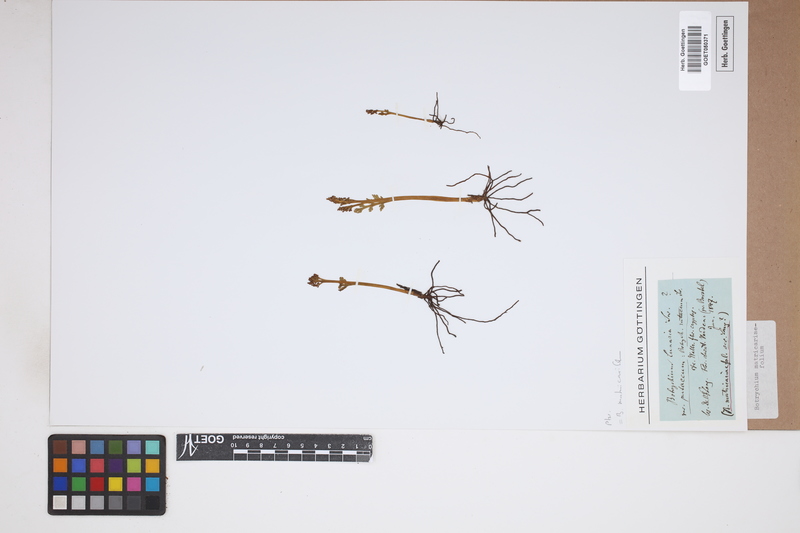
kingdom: Plantae
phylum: Tracheophyta
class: Polypodiopsida
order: Ophioglossales
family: Ophioglossaceae
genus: Botrychium
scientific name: Botrychium matricariifolium
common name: Branched moonwort
